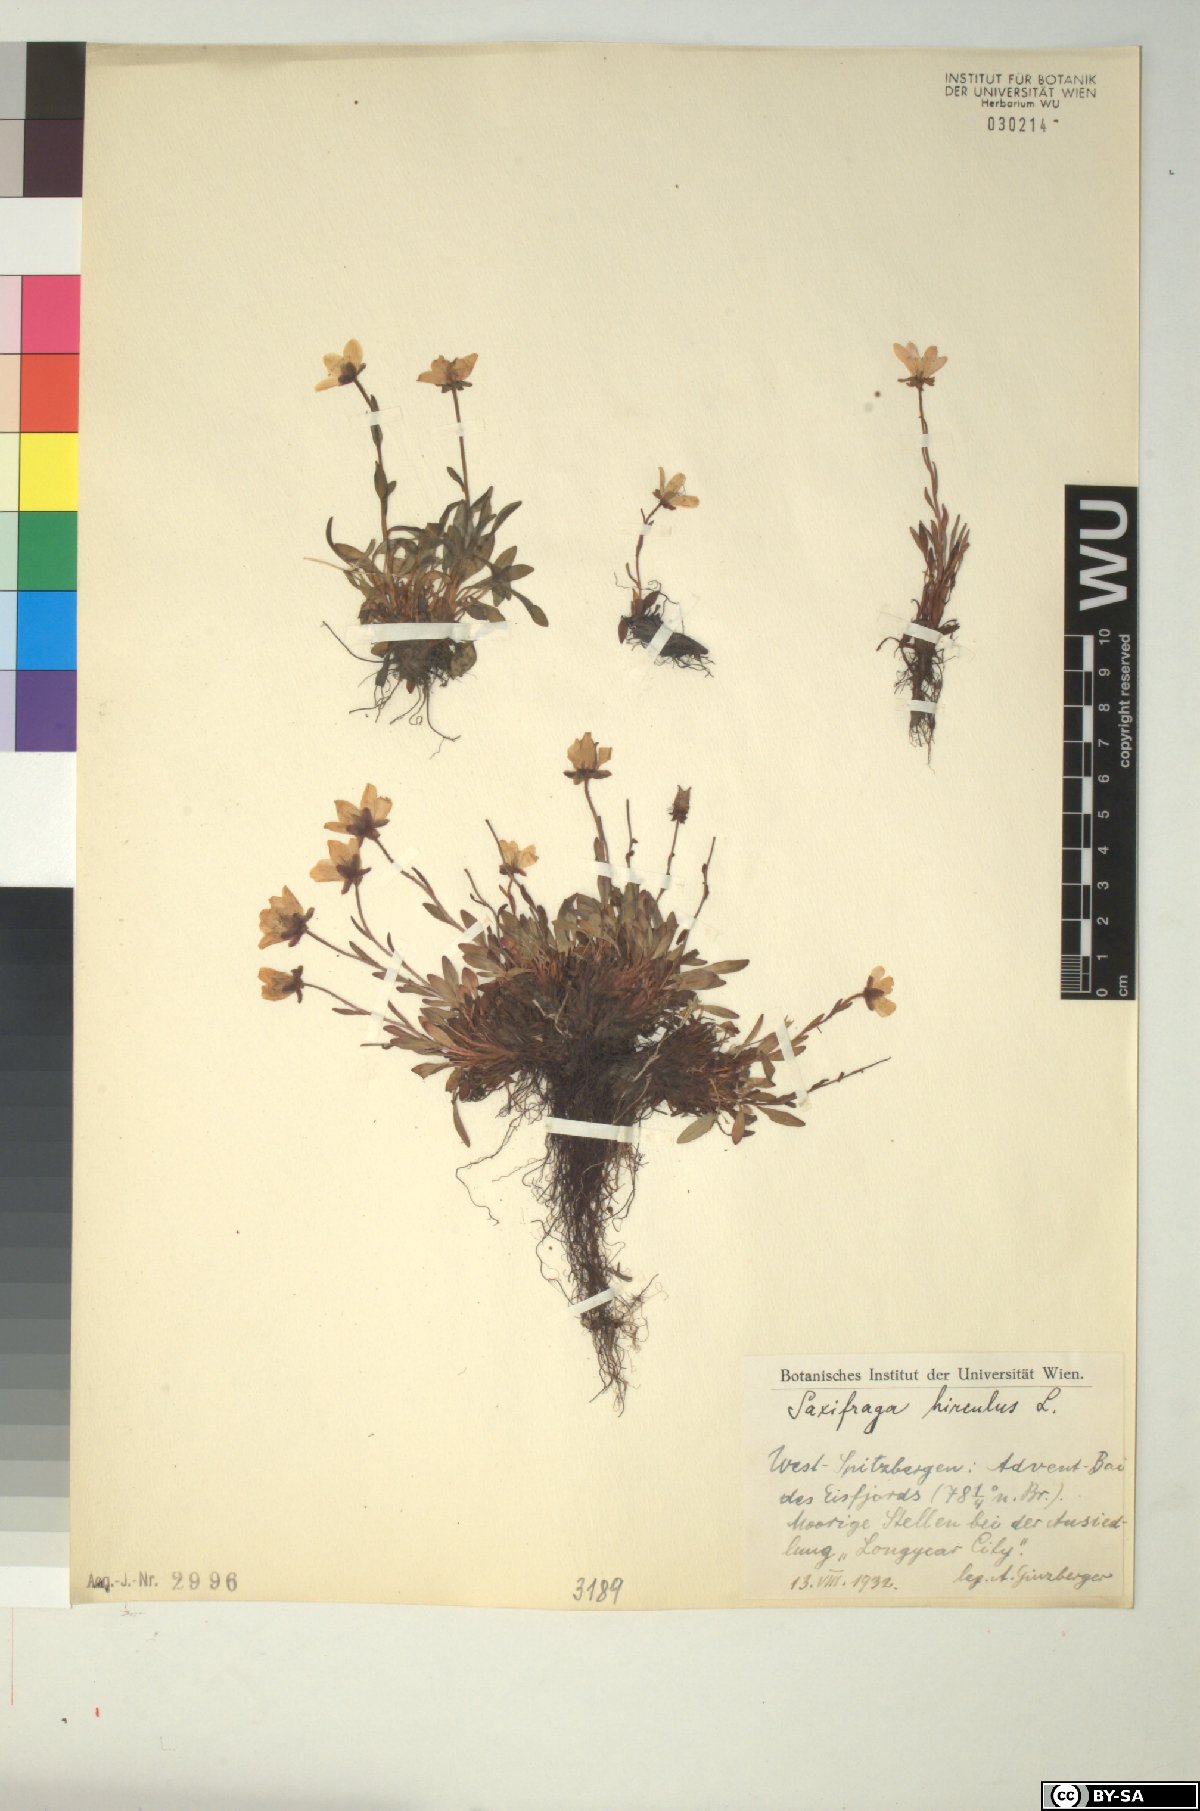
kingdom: Plantae
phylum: Tracheophyta
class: Magnoliopsida
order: Saxifragales
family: Saxifragaceae
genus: Saxifraga
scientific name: Saxifraga hirculus
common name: Yellow marsh saxifrage
